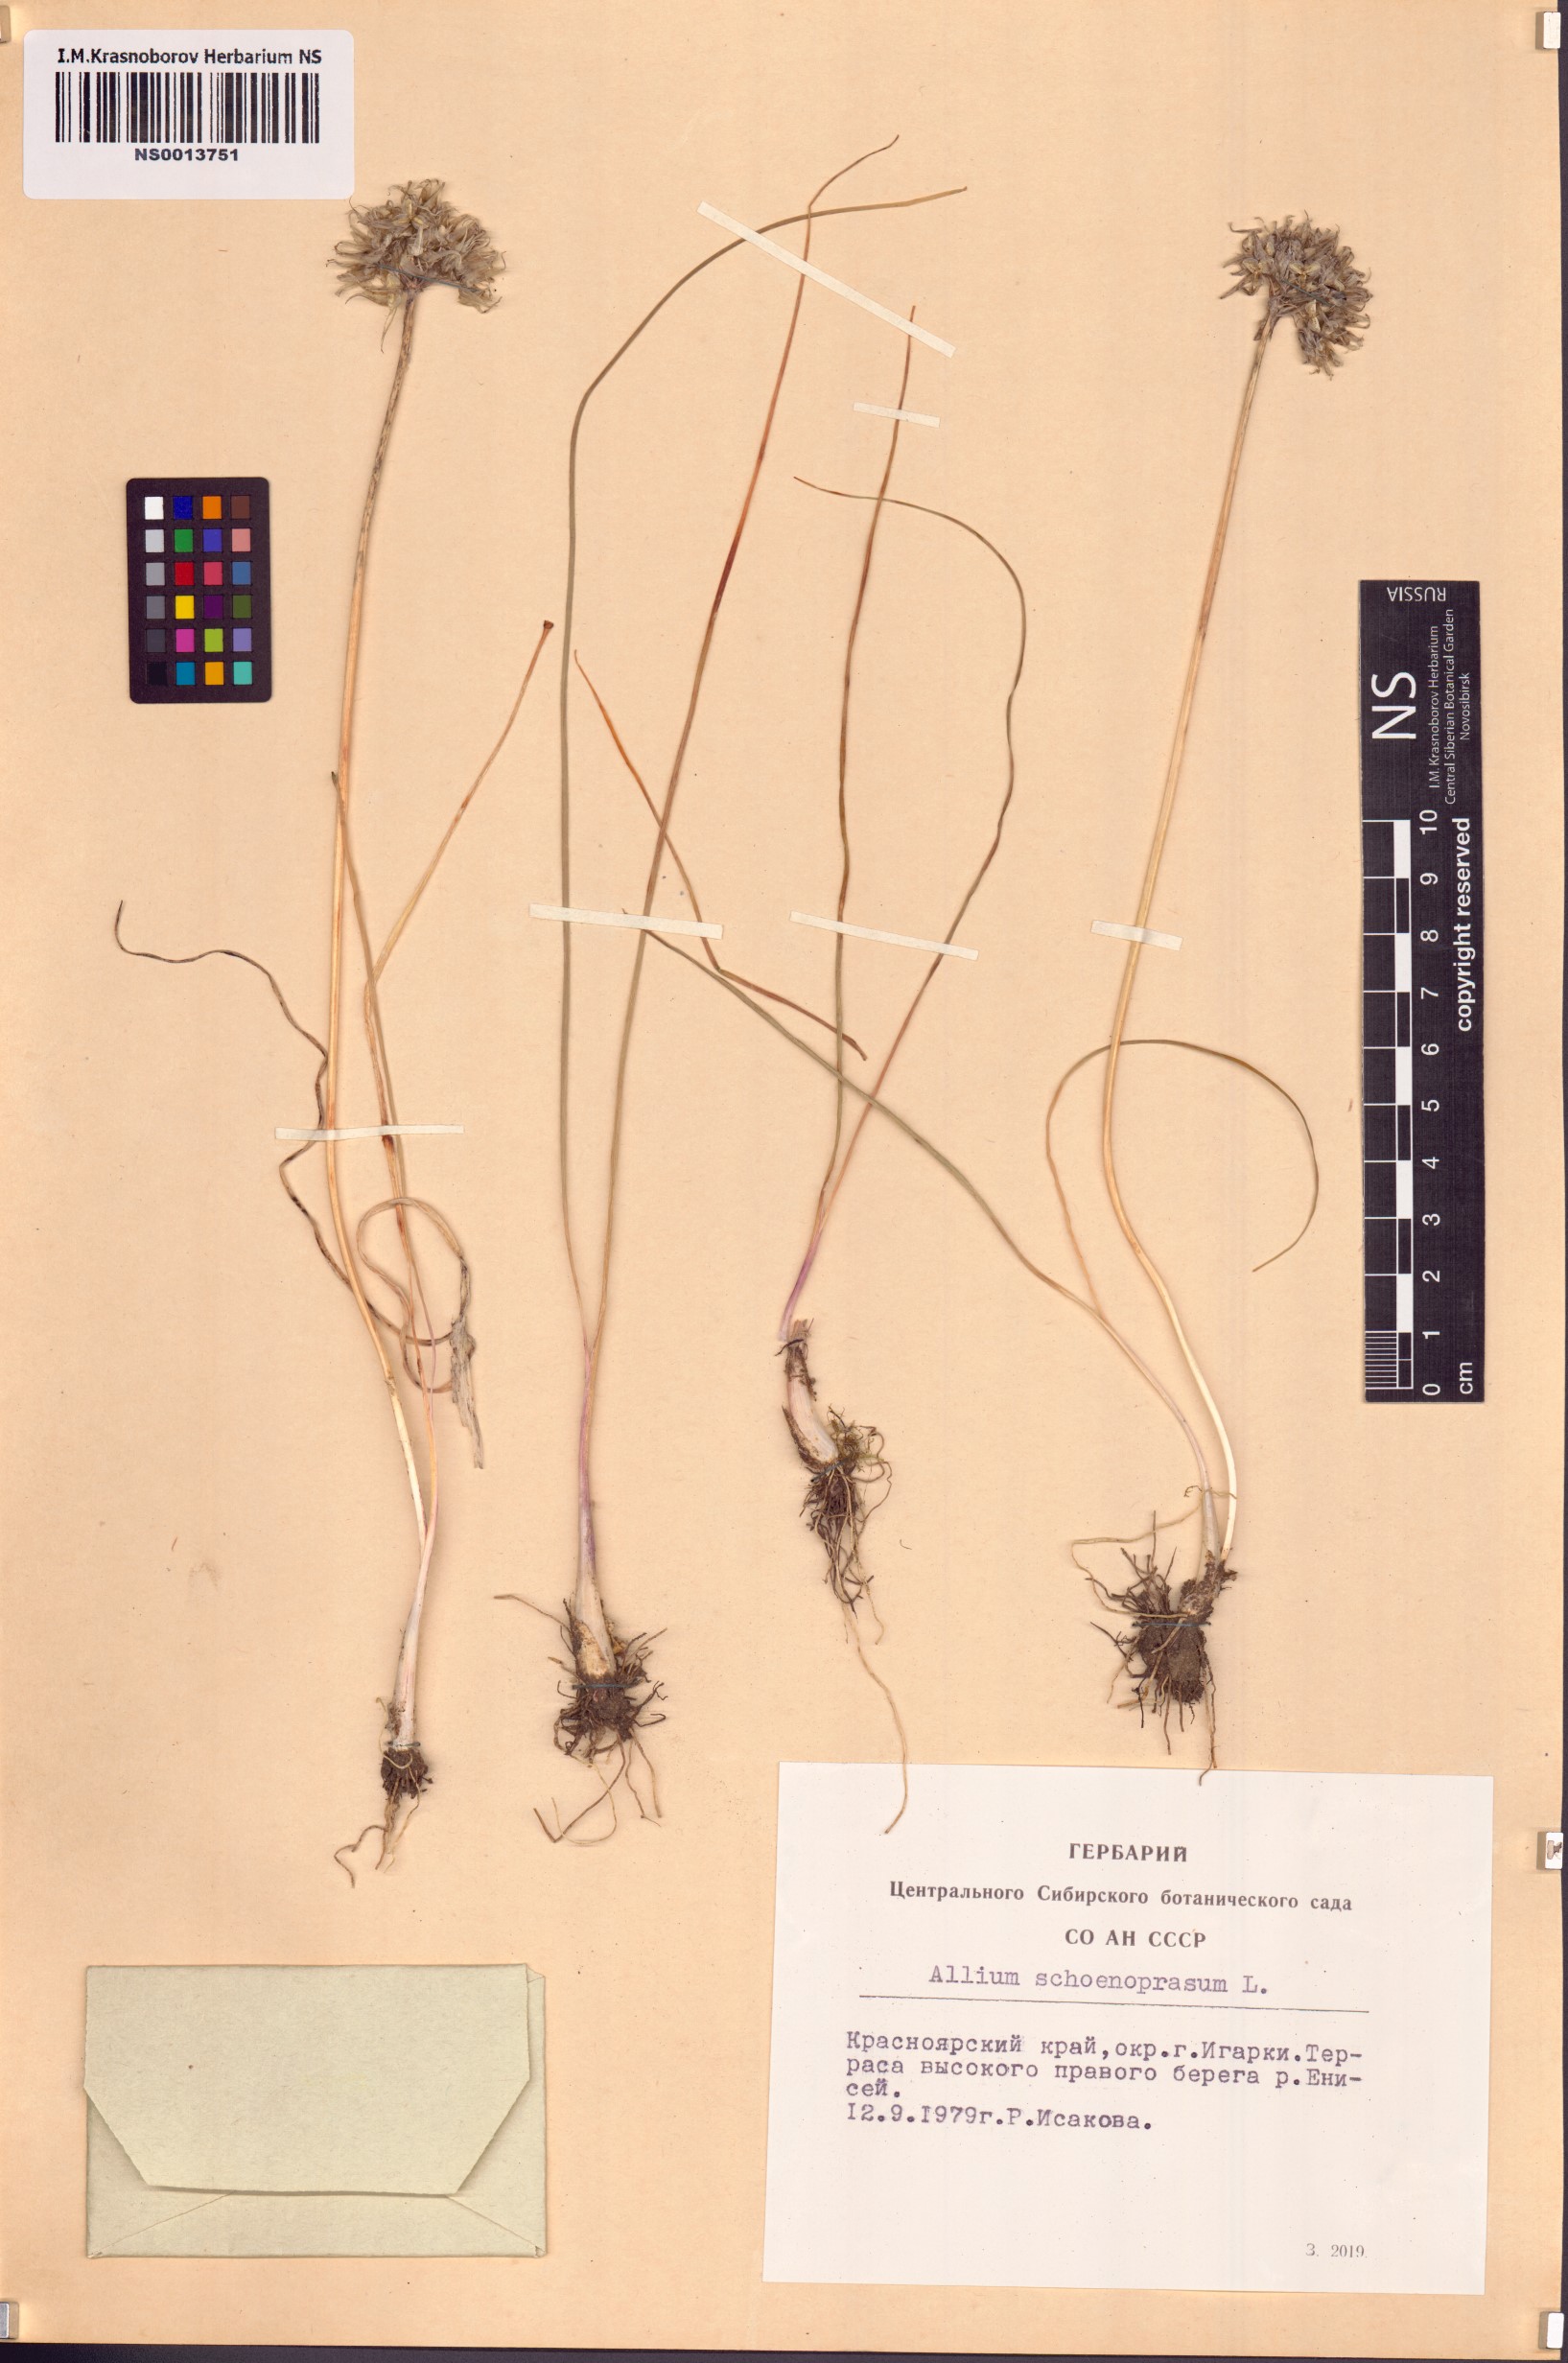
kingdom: Plantae
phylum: Tracheophyta
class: Liliopsida
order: Asparagales
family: Amaryllidaceae
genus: Allium
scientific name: Allium schoenoprasum
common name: Chives
